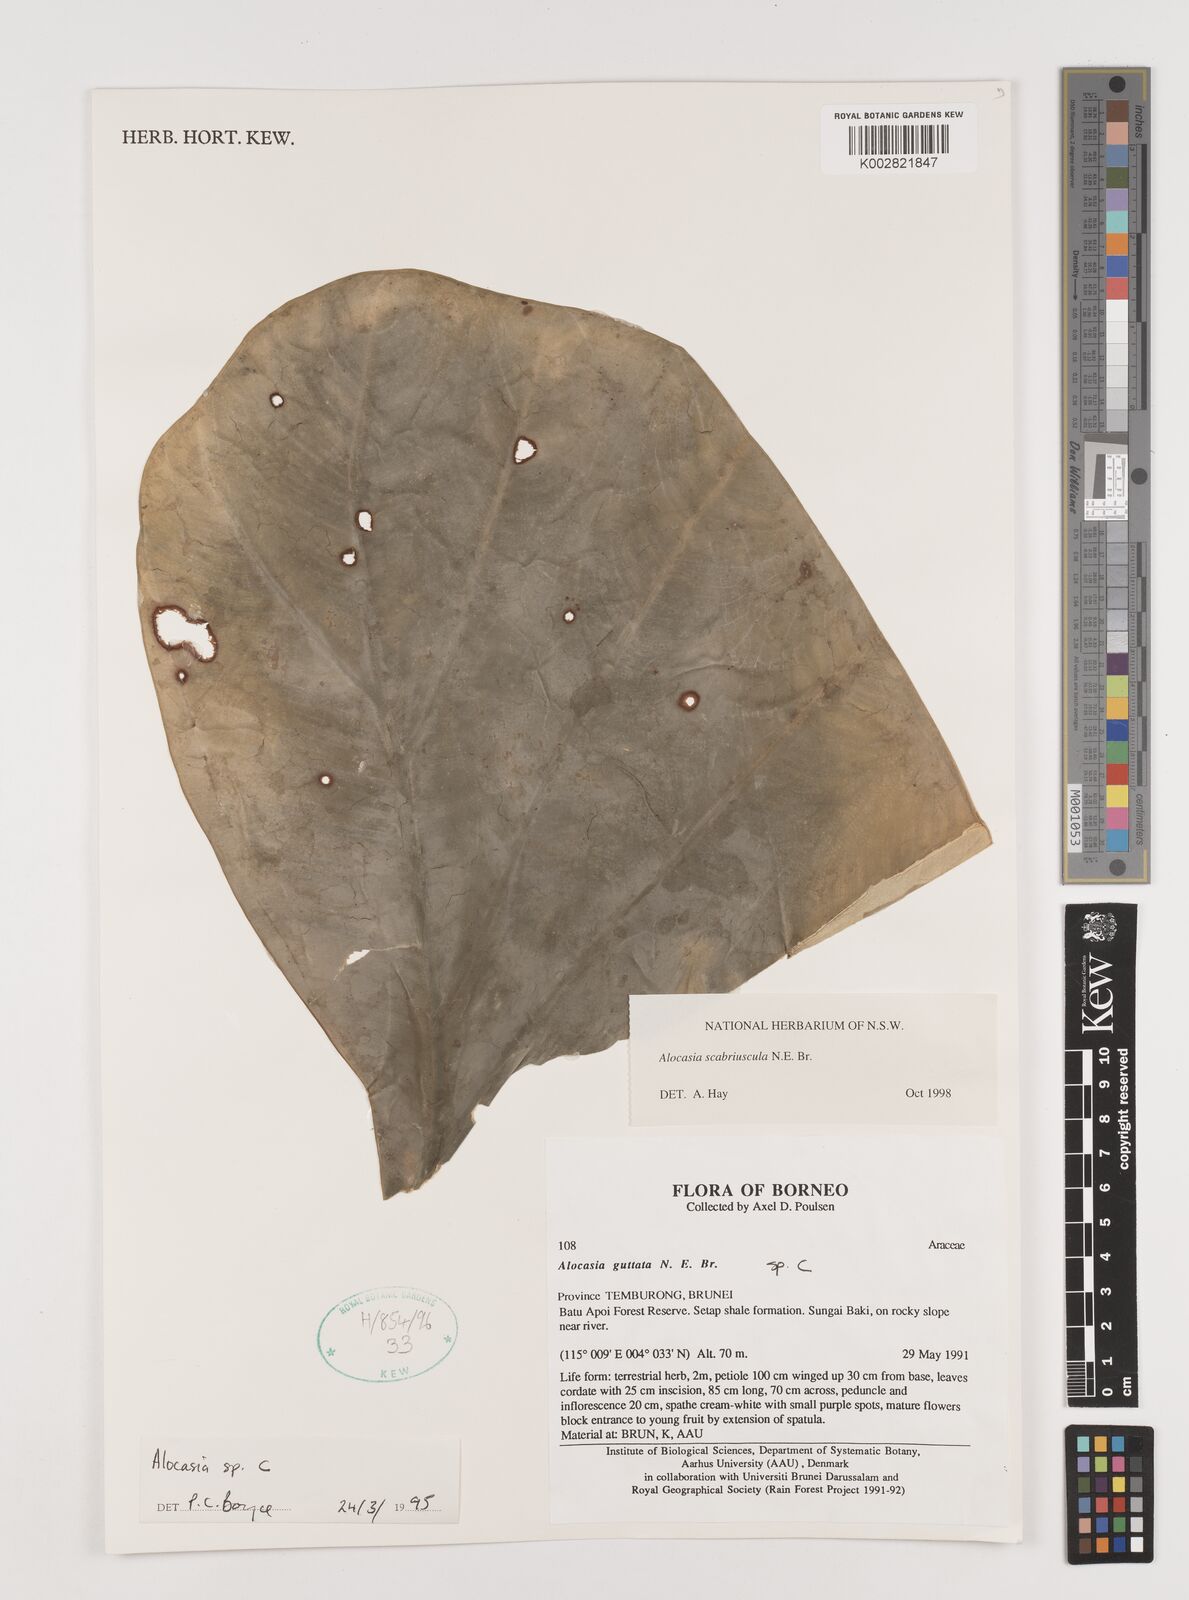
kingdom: Plantae
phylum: Tracheophyta
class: Liliopsida
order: Alismatales
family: Araceae
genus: Alocasia
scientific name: Alocasia scabriuscula
